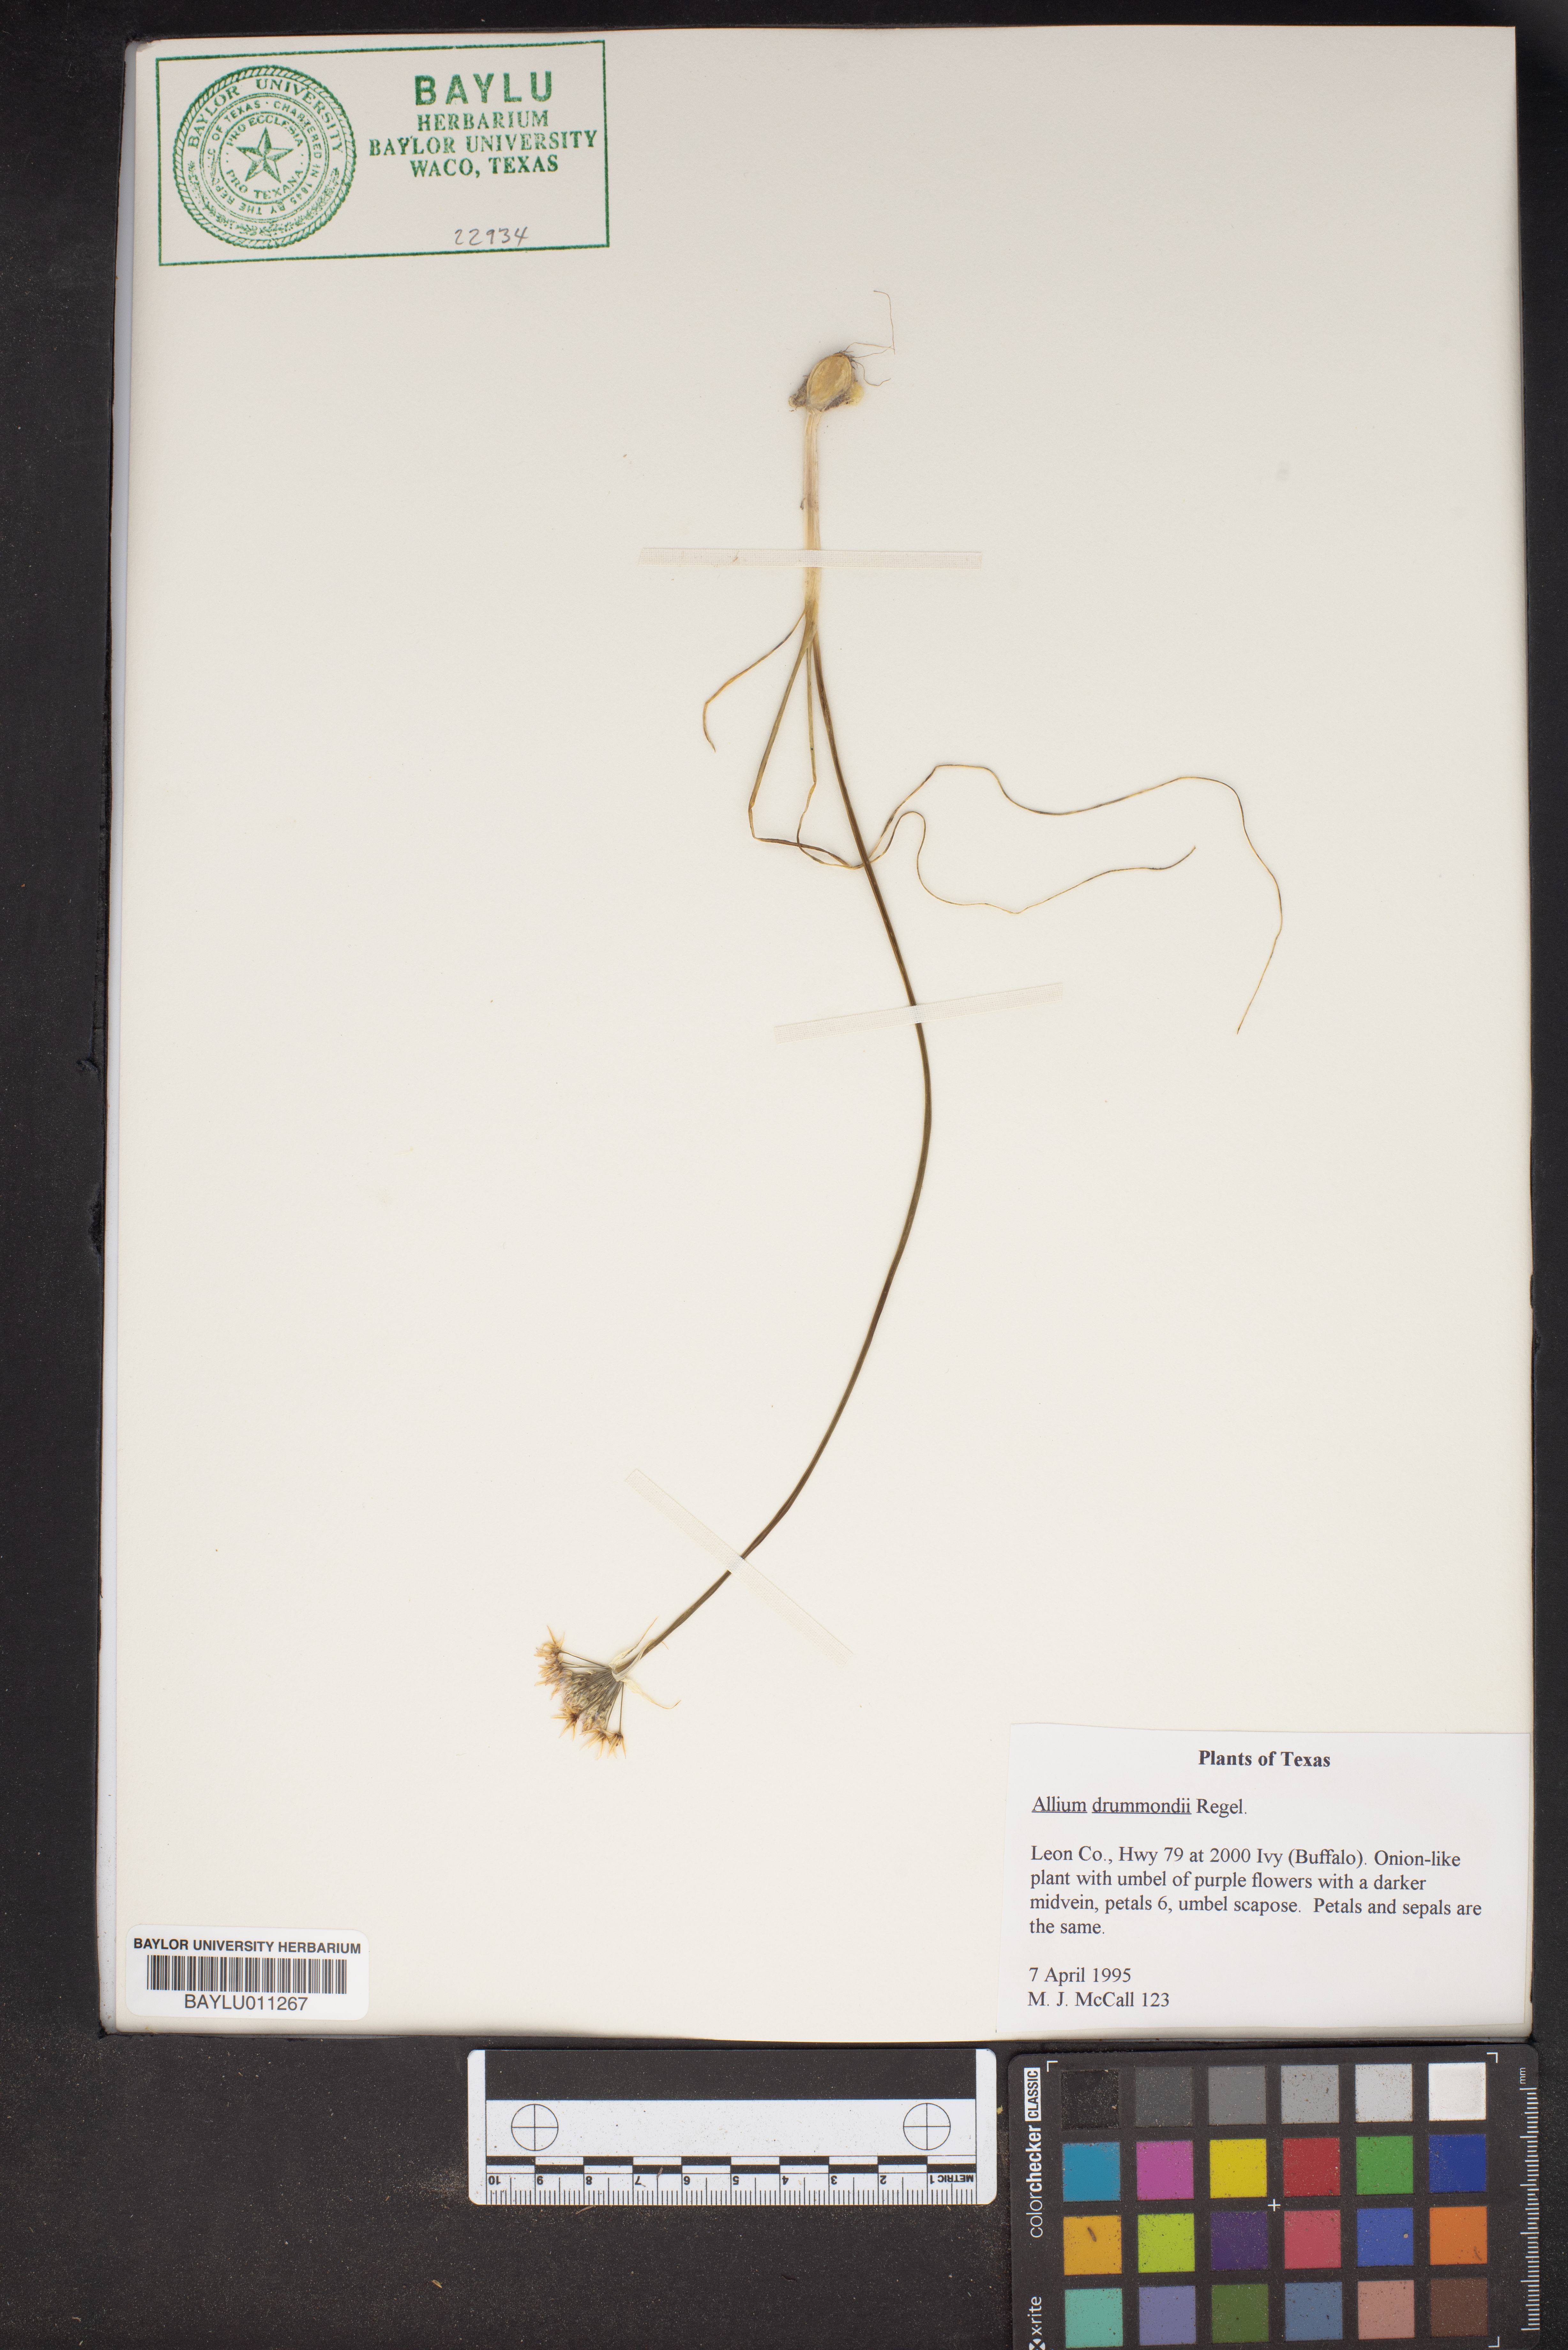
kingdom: Plantae
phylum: Tracheophyta
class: Liliopsida
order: Asparagales
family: Amaryllidaceae
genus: Allium
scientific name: Allium drummondii
